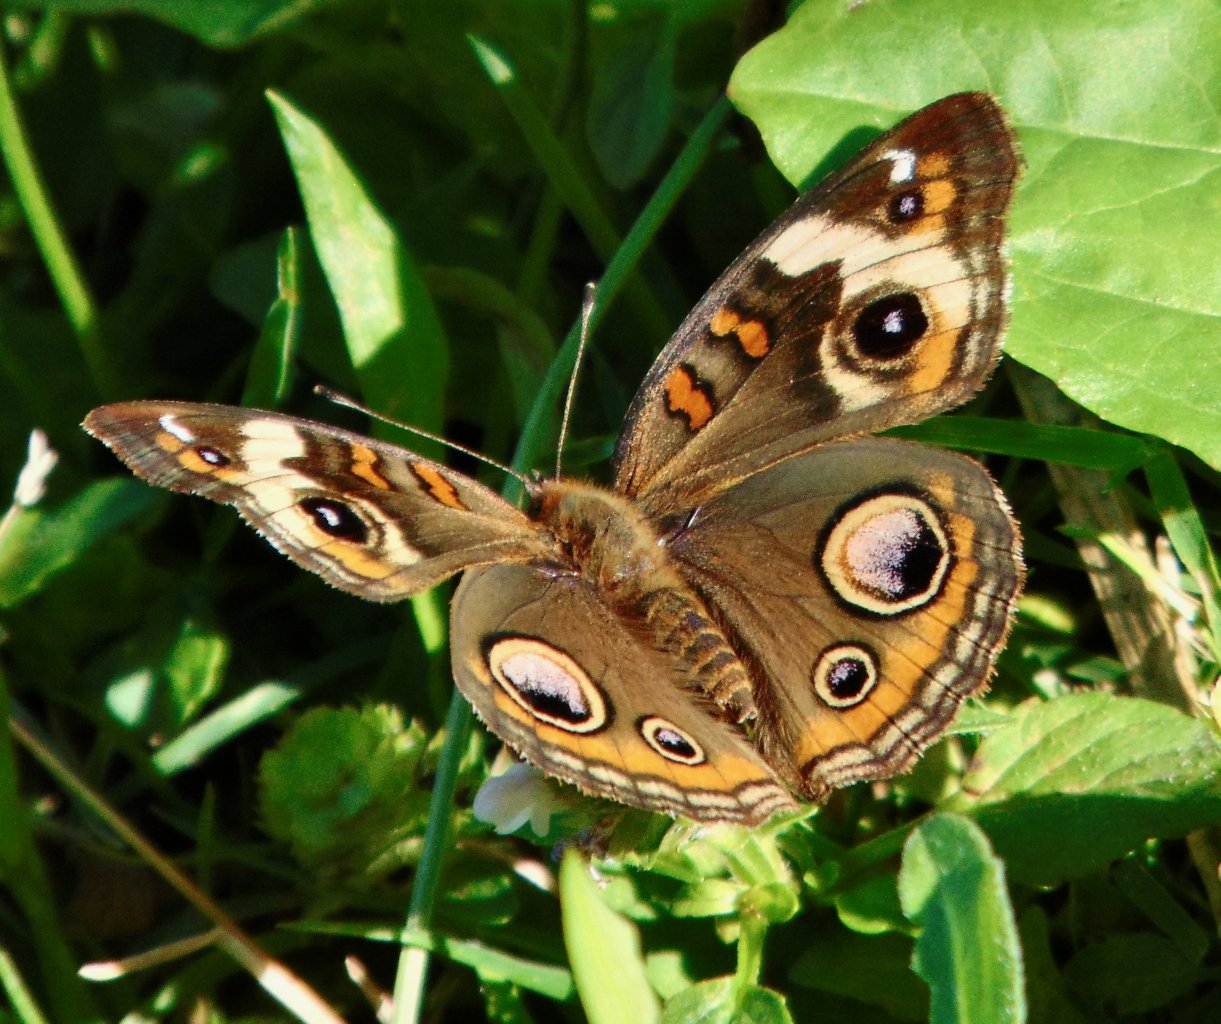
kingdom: Animalia
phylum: Arthropoda
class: Insecta
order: Lepidoptera
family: Nymphalidae
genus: Junonia
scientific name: Junonia coenia
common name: Common Buckeye
